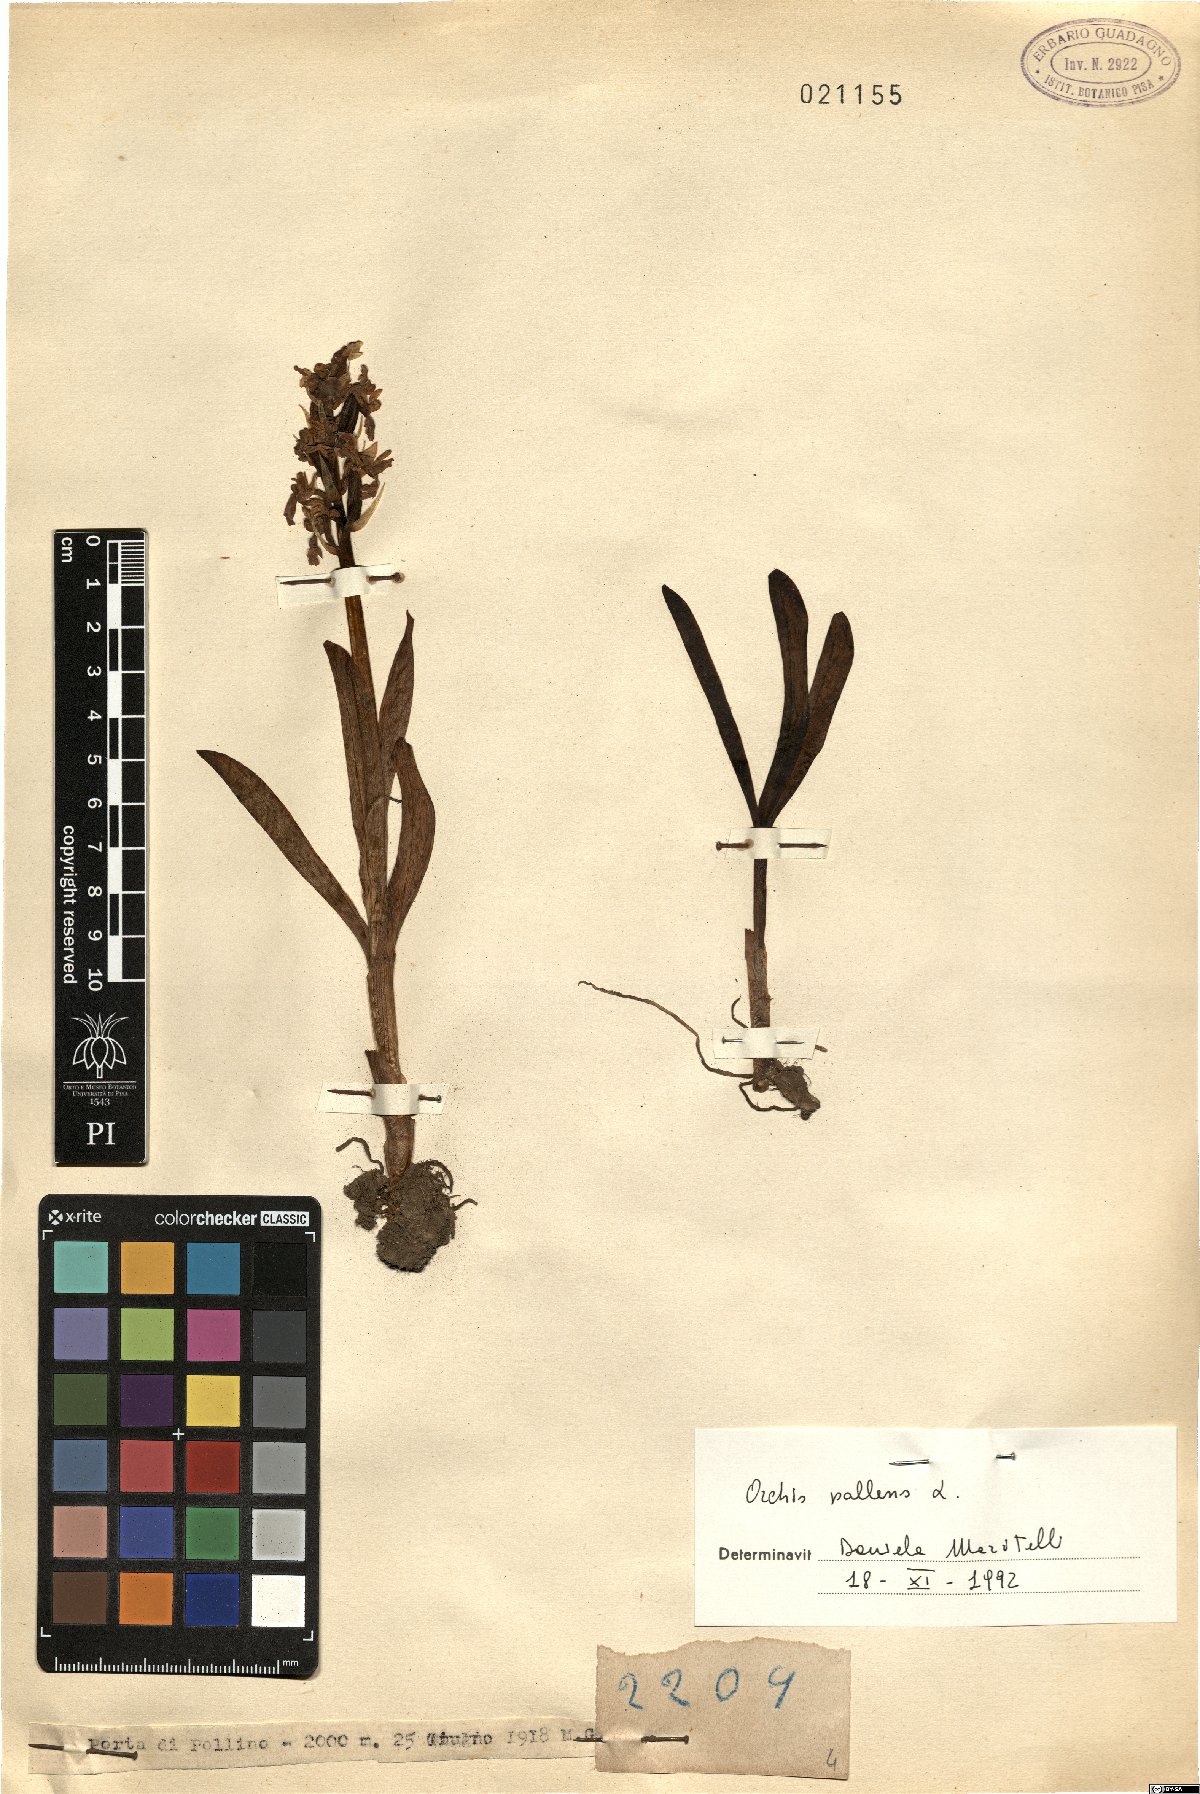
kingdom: Plantae
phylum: Tracheophyta
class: Liliopsida
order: Asparagales
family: Orchidaceae
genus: Orchis
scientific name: Orchis pallens
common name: Pale-flowered orchid
